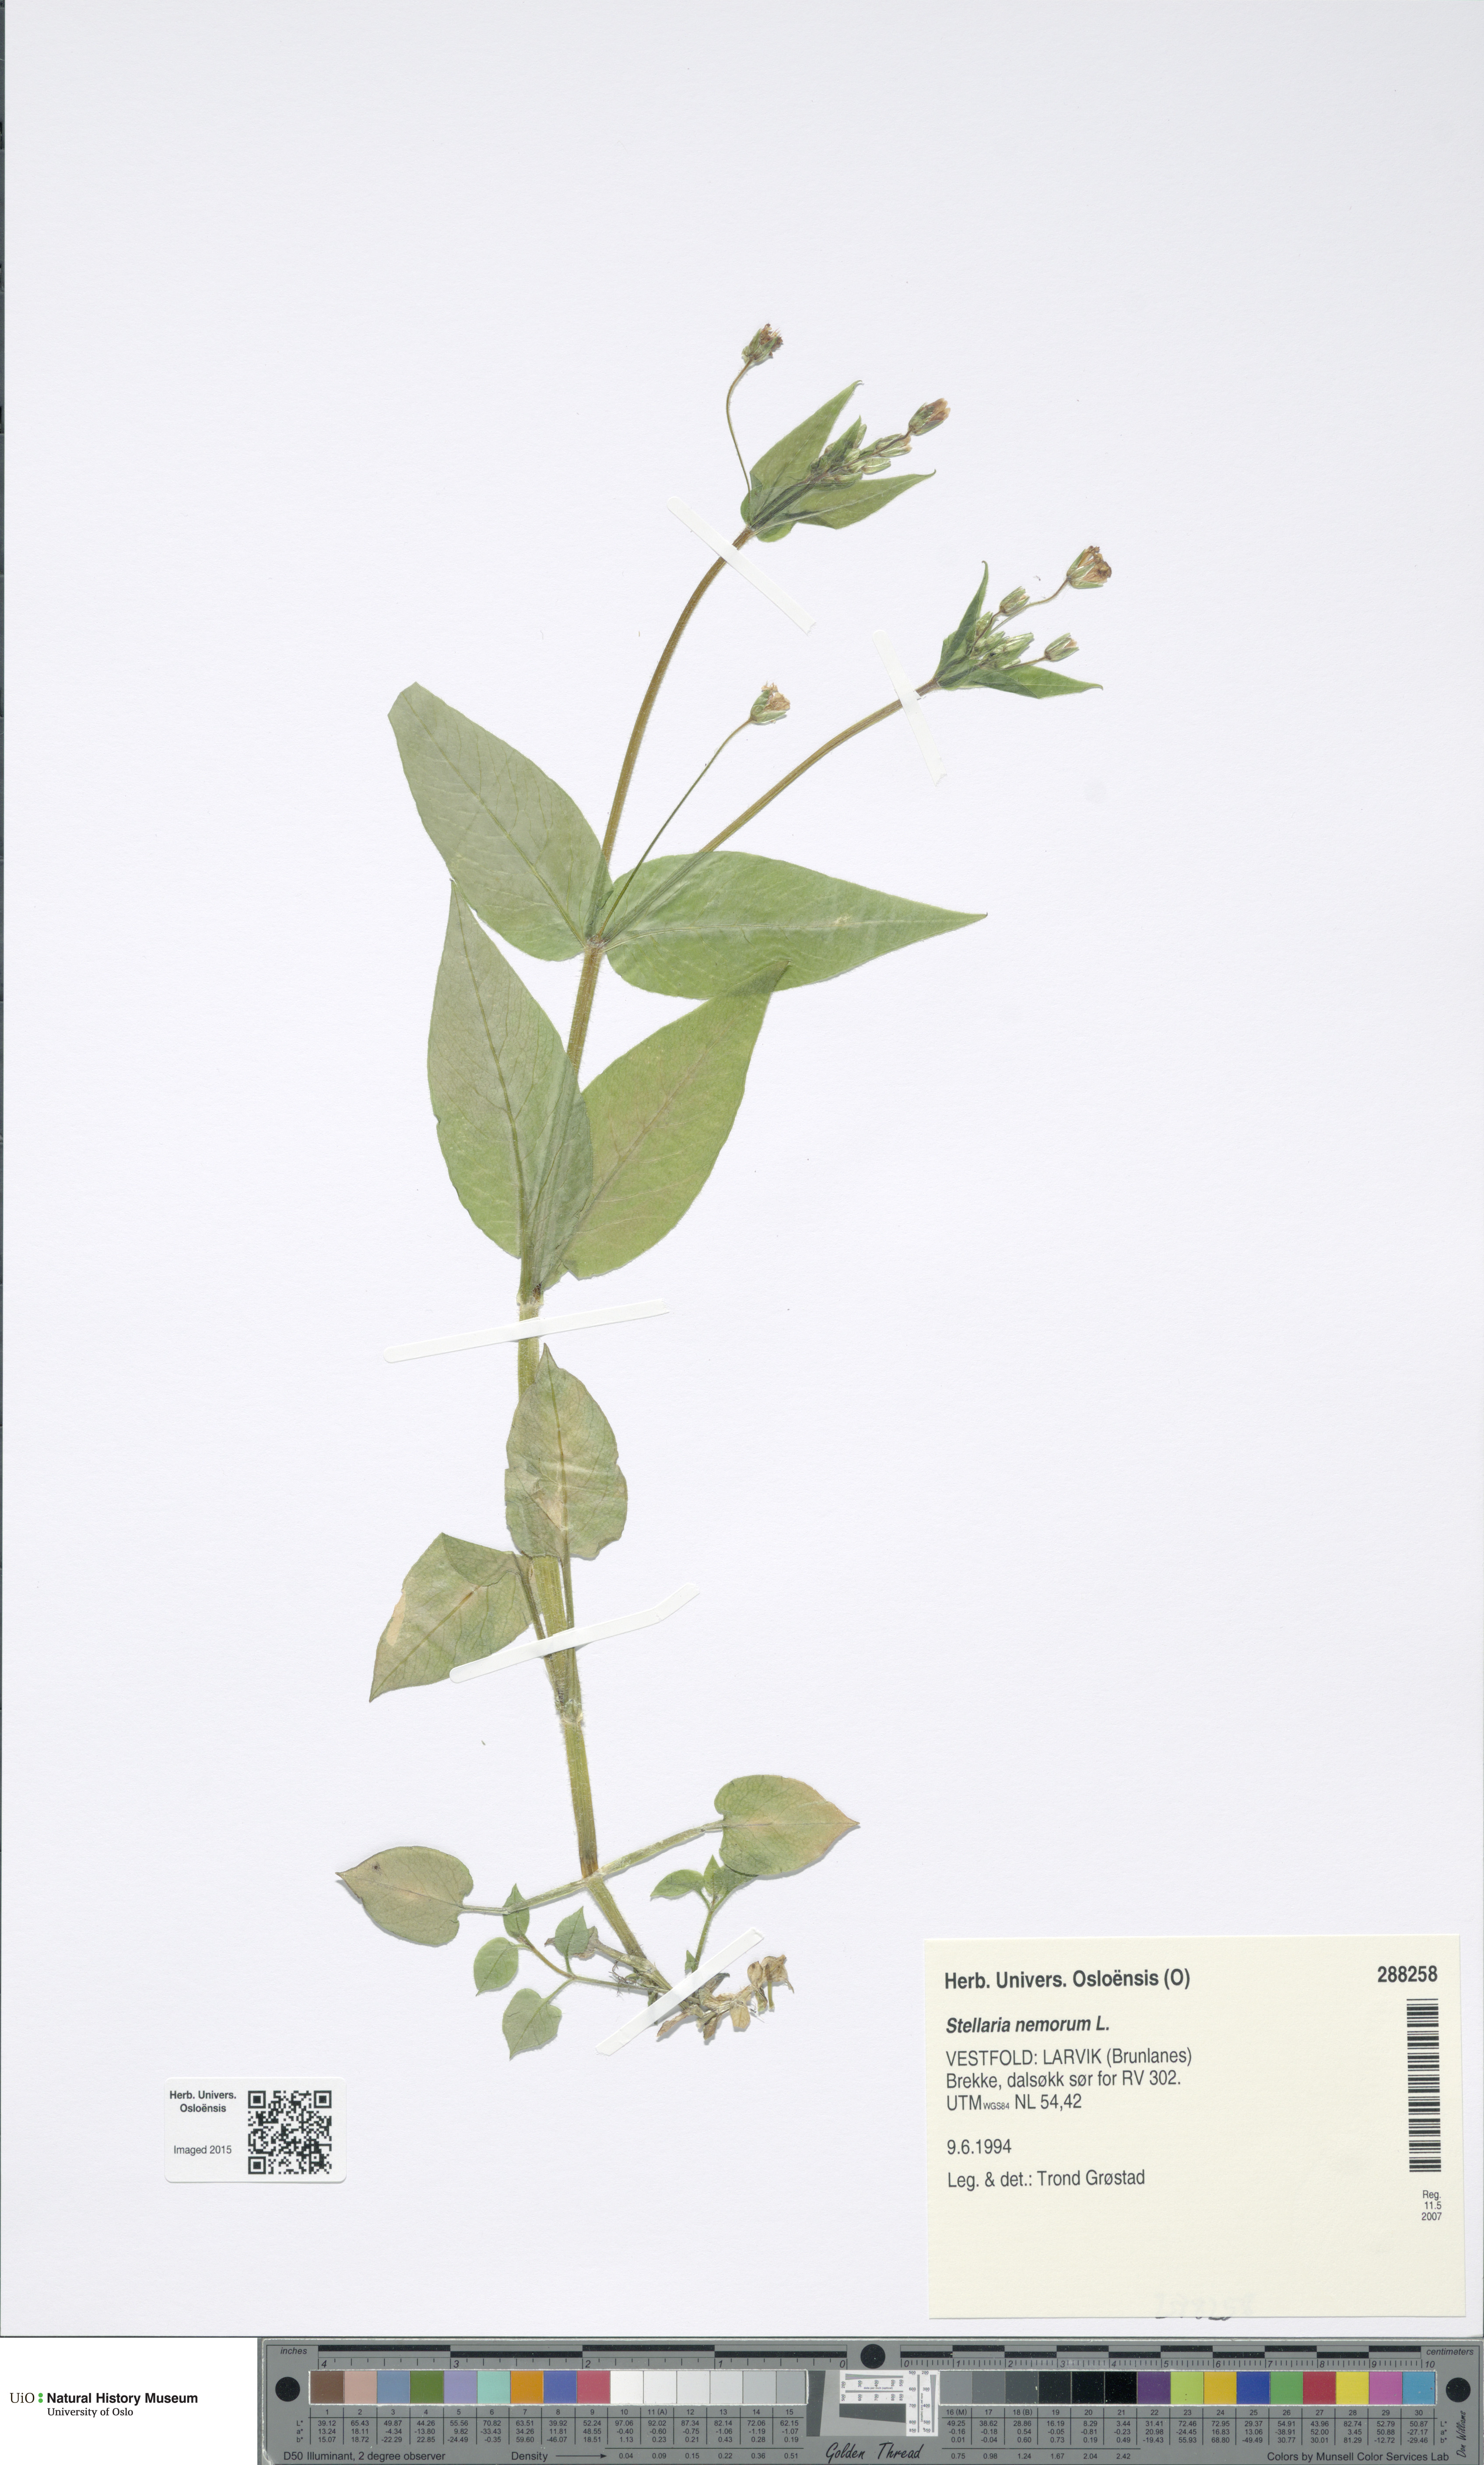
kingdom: Plantae
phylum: Tracheophyta
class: Magnoliopsida
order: Caryophyllales
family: Caryophyllaceae
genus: Stellaria
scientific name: Stellaria nemorum
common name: Wood stitchwort
